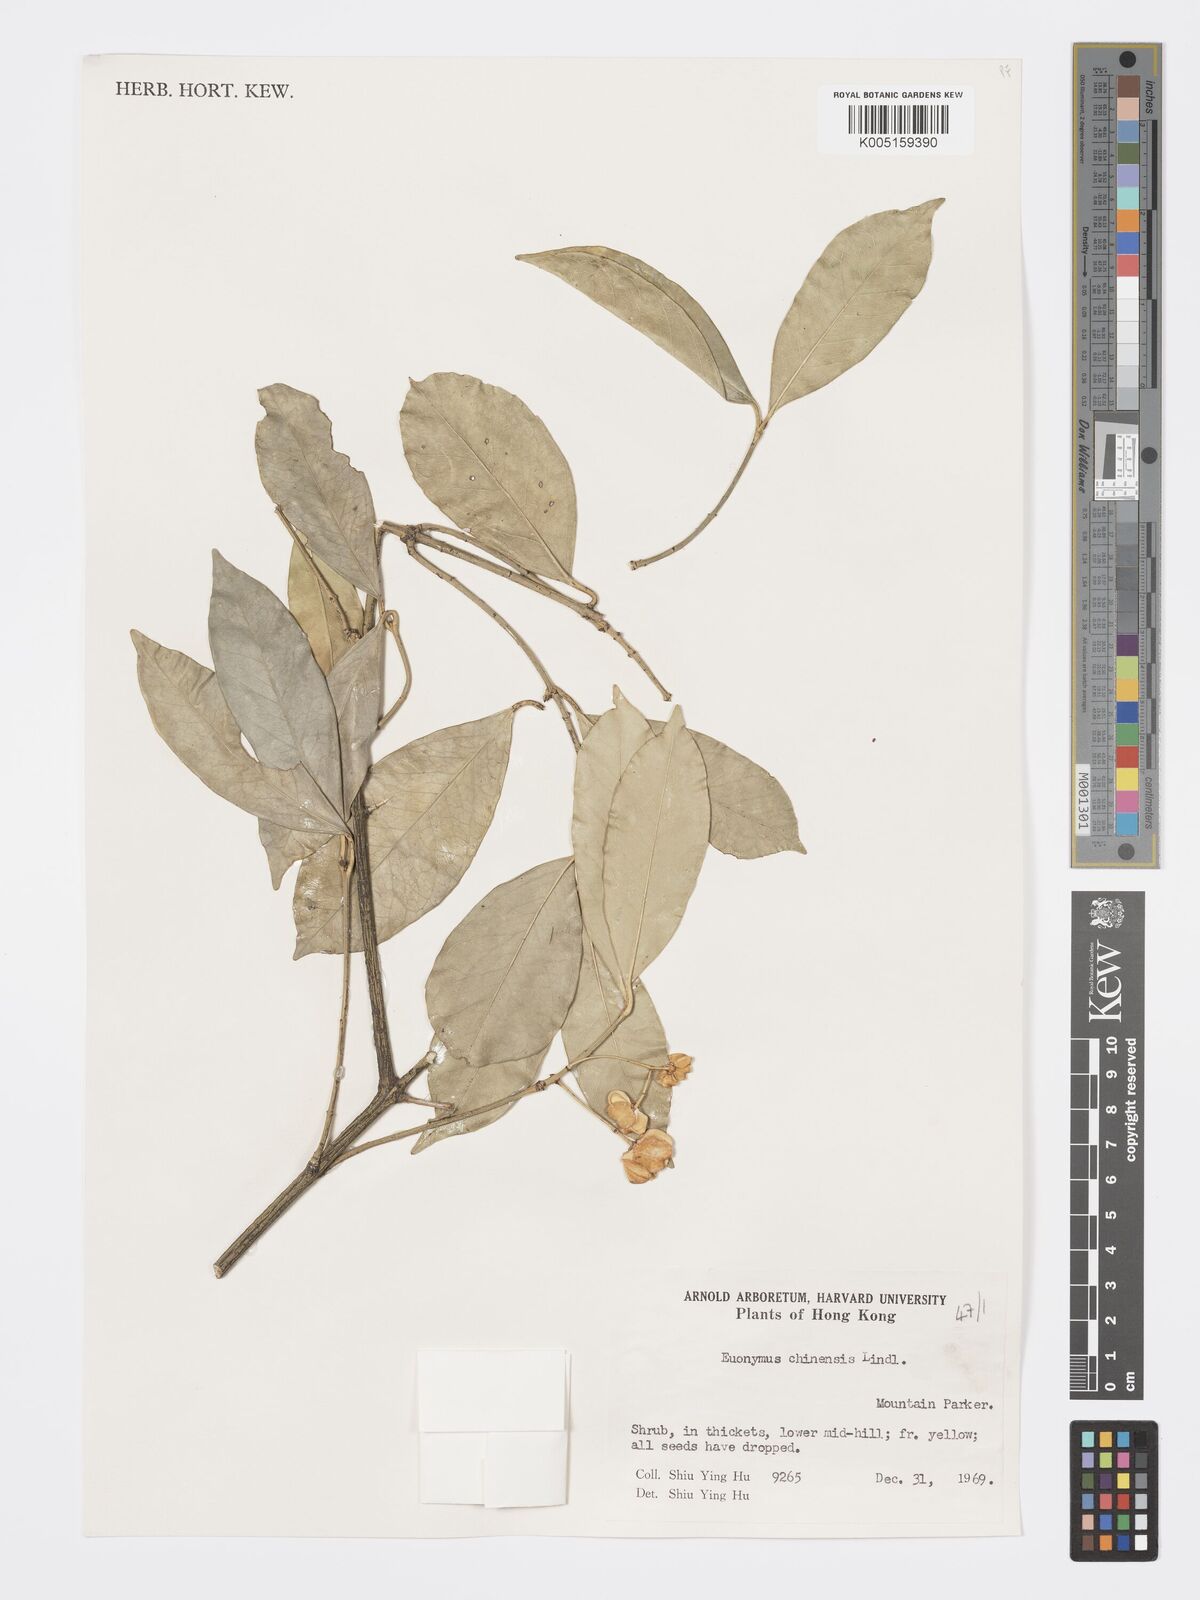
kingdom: Plantae
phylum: Tracheophyta
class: Magnoliopsida
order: Celastrales
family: Celastraceae
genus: Euonymus
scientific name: Euonymus nitidus
